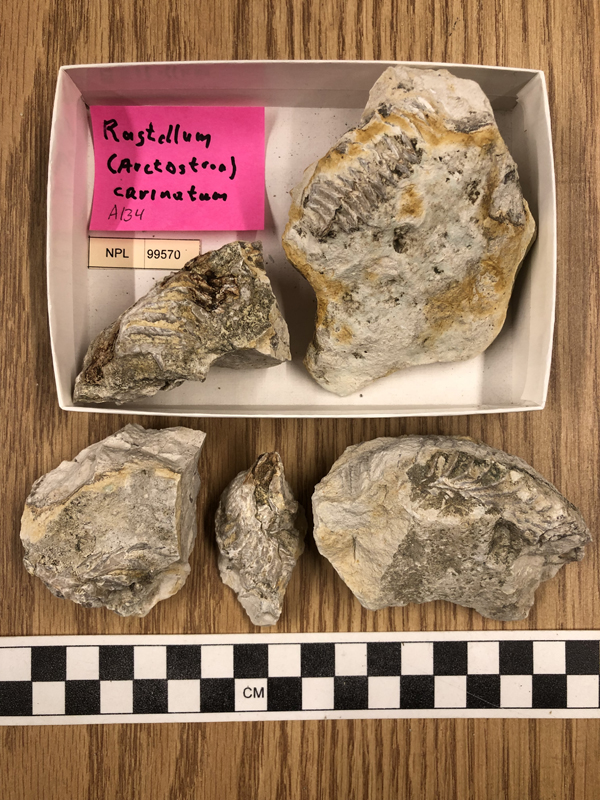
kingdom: Animalia
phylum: Mollusca
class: Bivalvia
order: Ostreida
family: Arctostreidae
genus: Rastellum
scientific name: Rastellum
